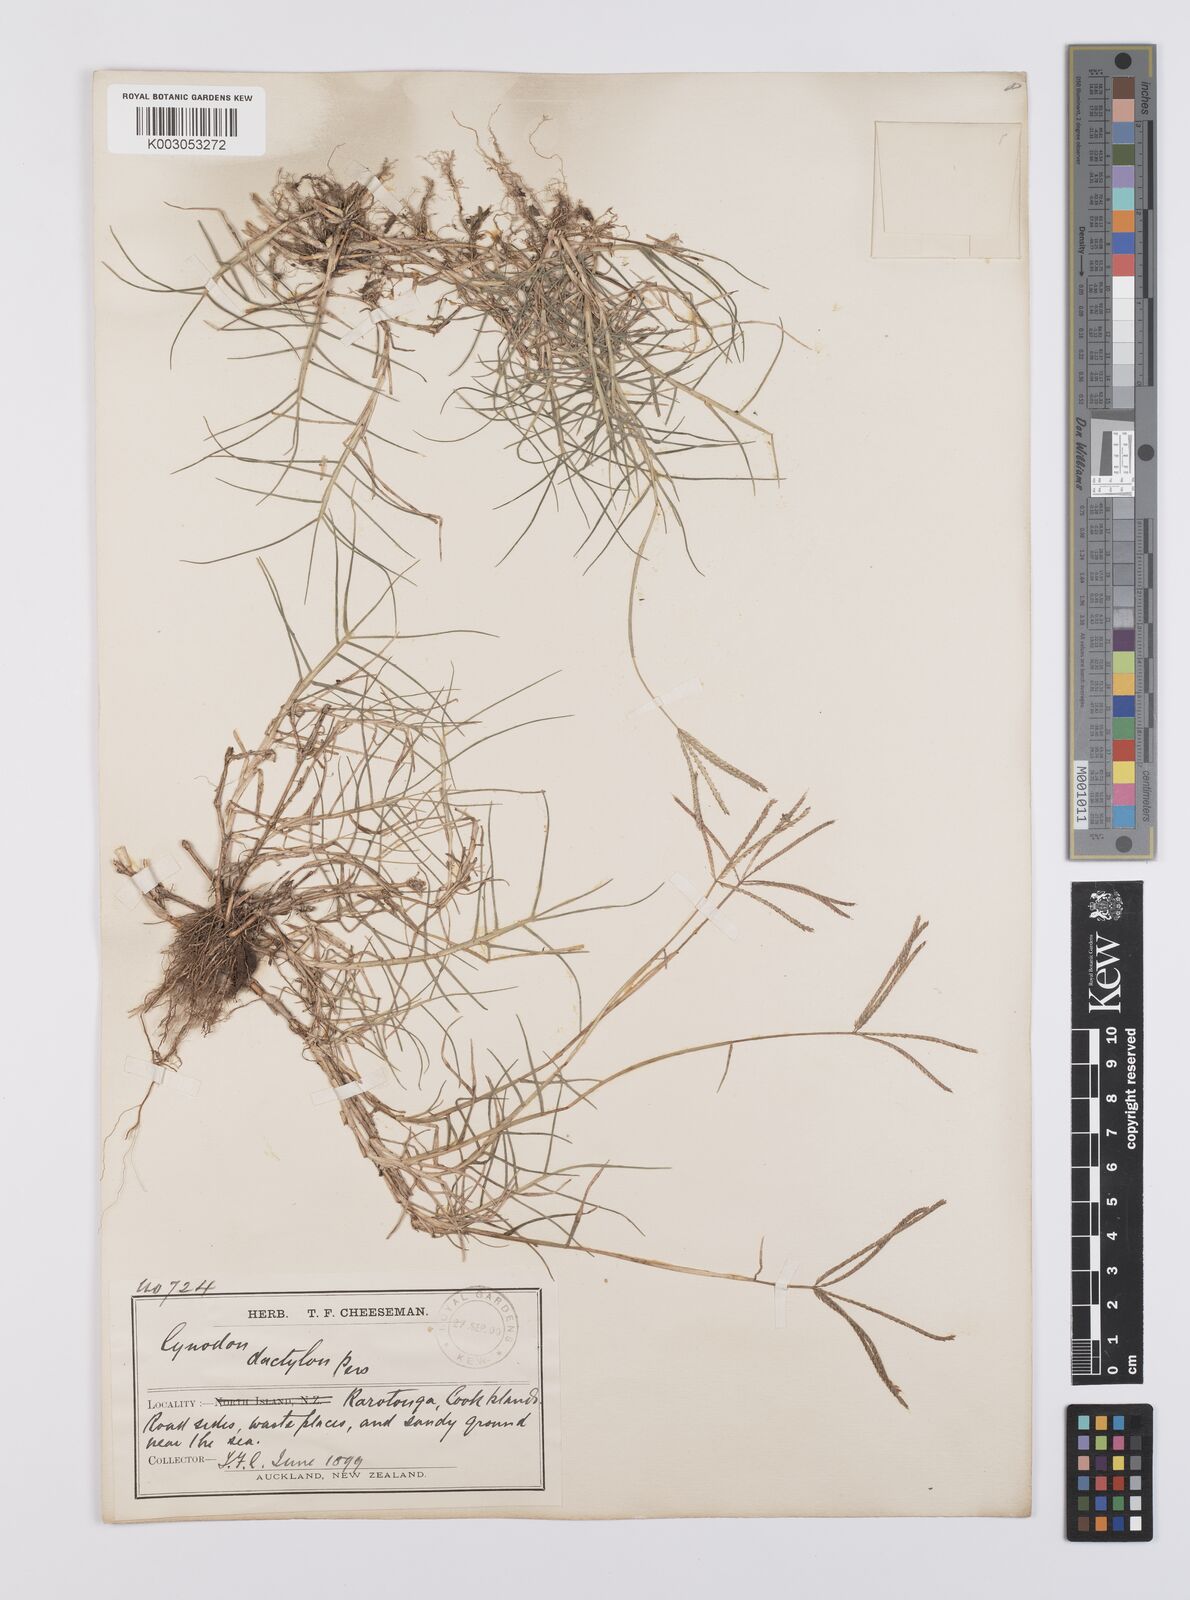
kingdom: Plantae
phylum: Tracheophyta
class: Liliopsida
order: Poales
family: Poaceae
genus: Cynodon
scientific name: Cynodon dactylon
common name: Bermuda grass
